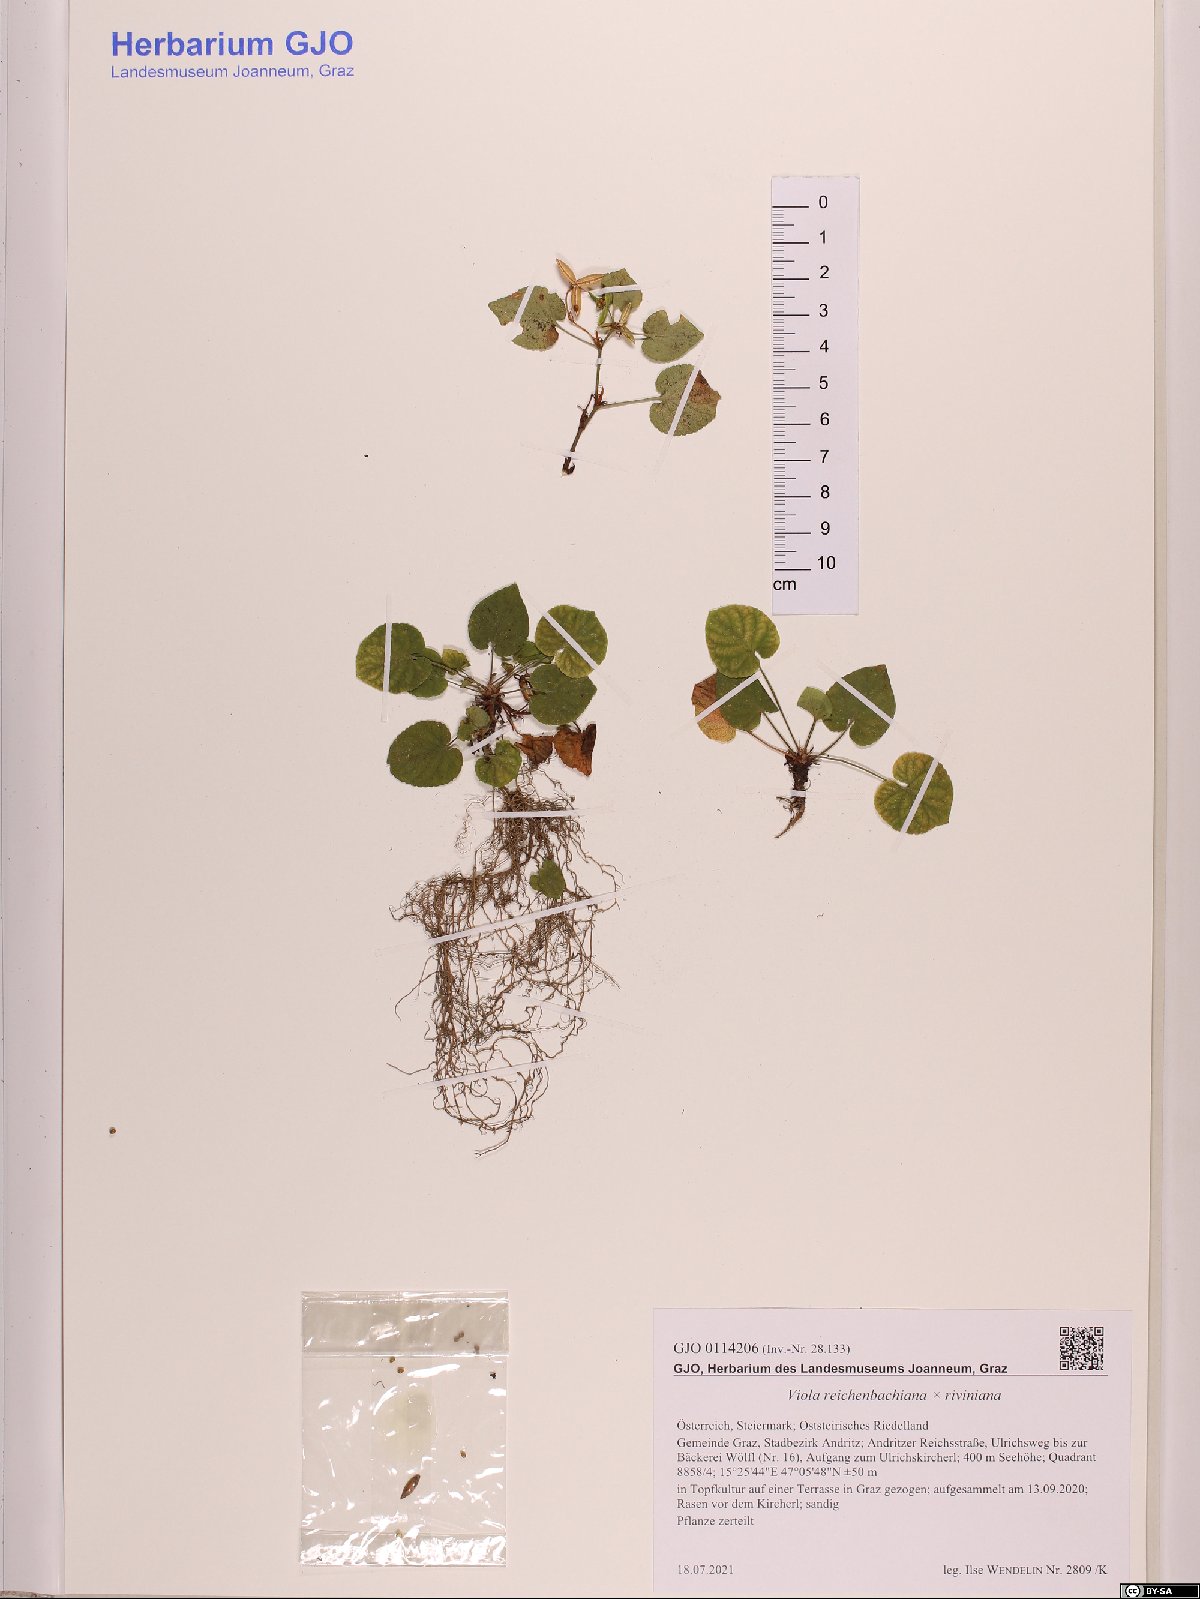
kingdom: Plantae
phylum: Tracheophyta
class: Magnoliopsida
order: Malpighiales
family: Violaceae
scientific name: Violaceae
